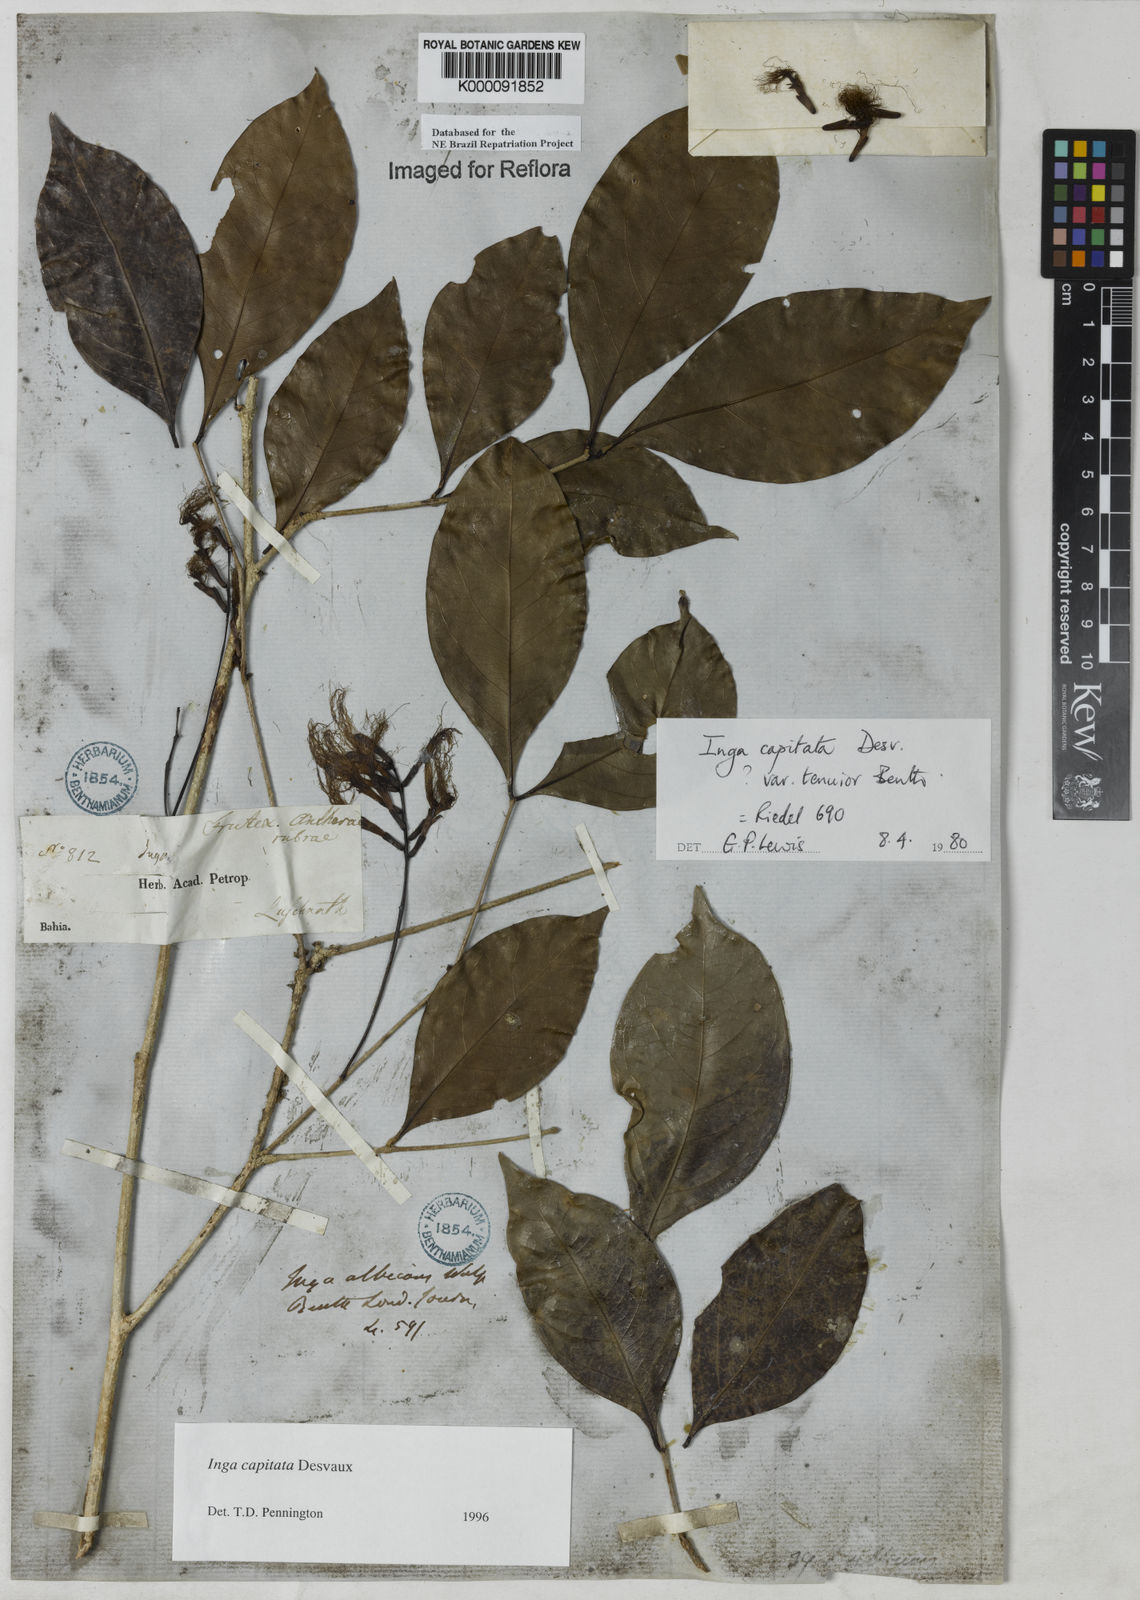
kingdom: Plantae
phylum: Tracheophyta
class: Magnoliopsida
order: Fabales
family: Fabaceae
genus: Inga
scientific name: Inga capitata
